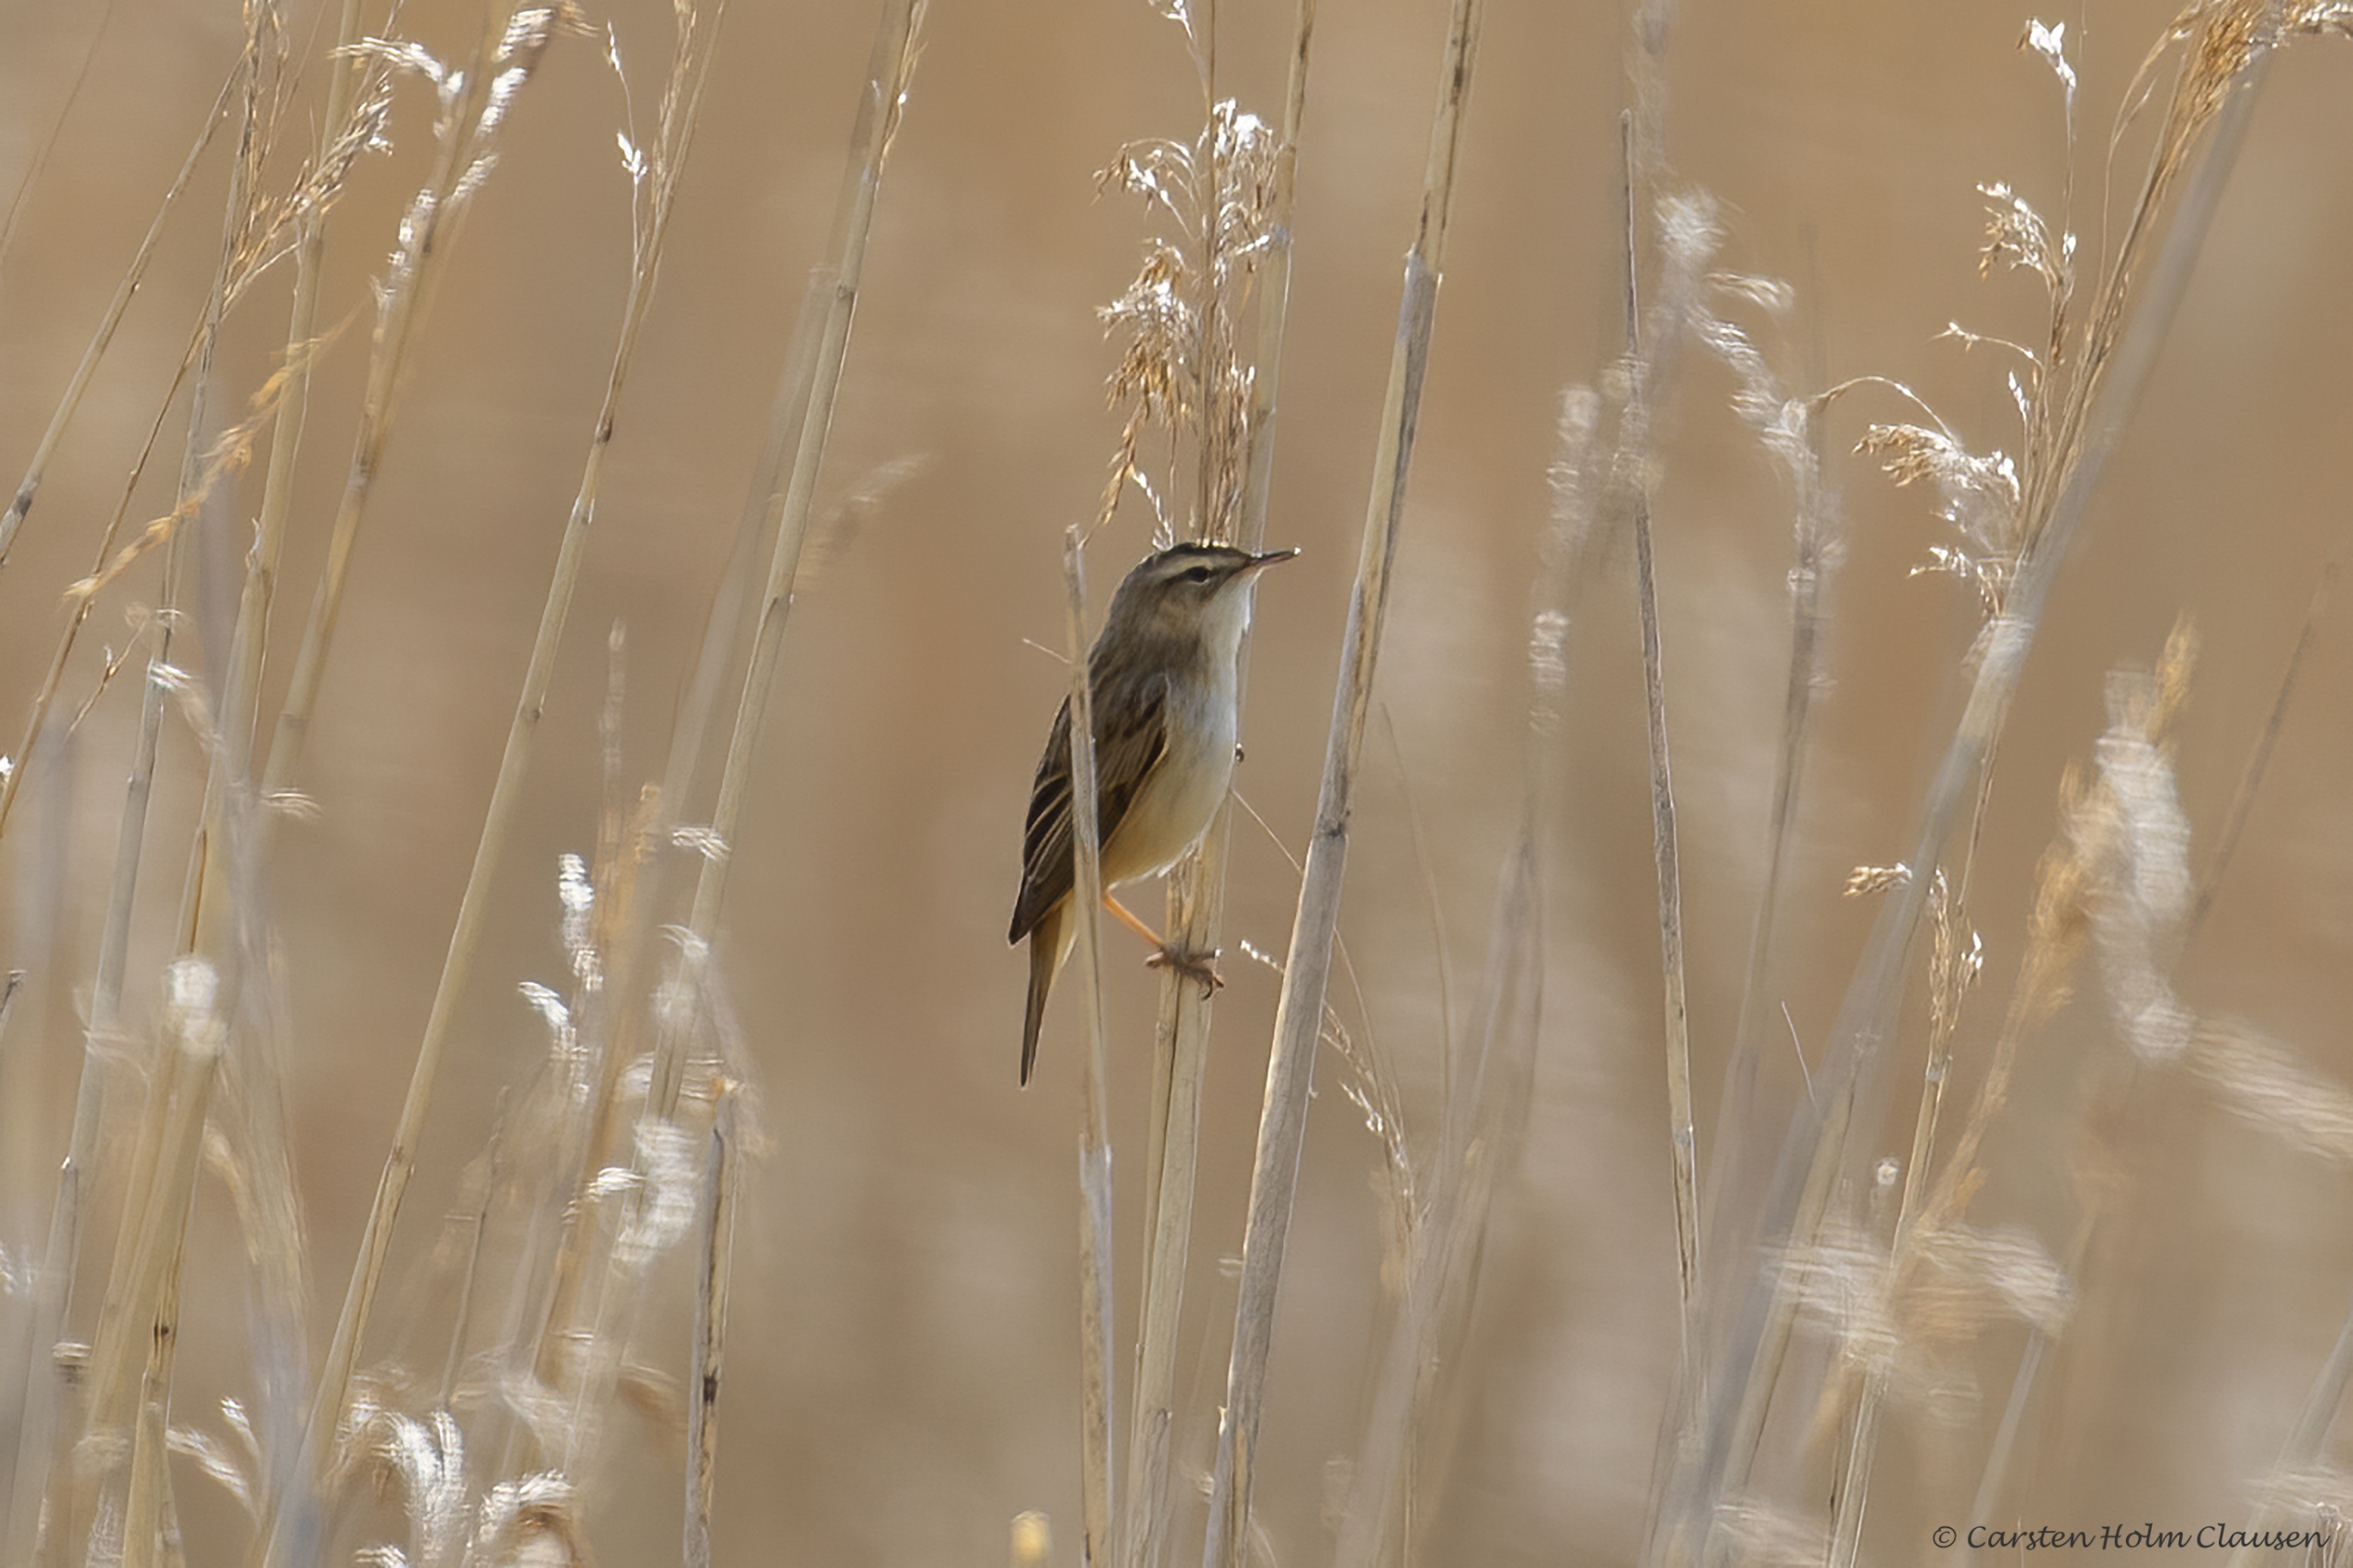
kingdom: Animalia
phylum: Chordata
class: Aves
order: Passeriformes
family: Acrocephalidae
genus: Acrocephalus
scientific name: Acrocephalus schoenobaenus
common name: Sivsanger
